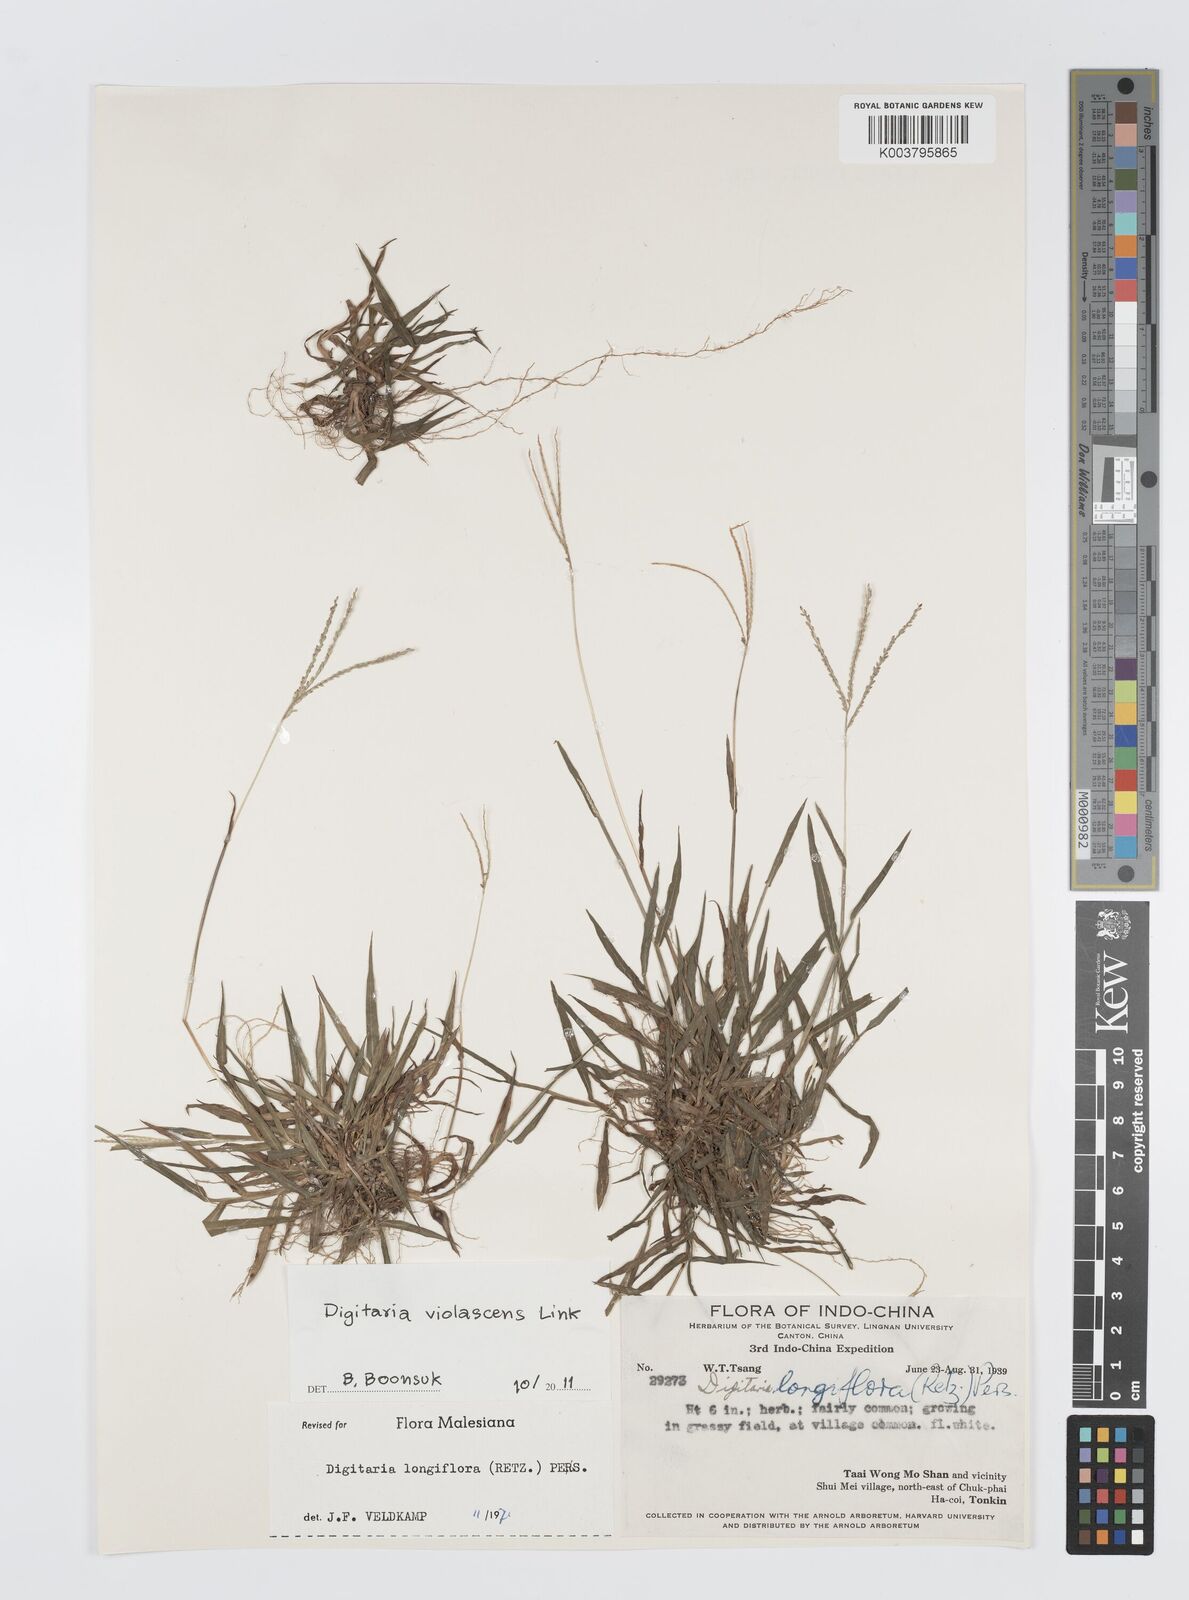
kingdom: Plantae
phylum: Tracheophyta
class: Liliopsida
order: Poales
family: Poaceae
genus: Digitaria
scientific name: Digitaria violascens
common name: Violet crabgrass
